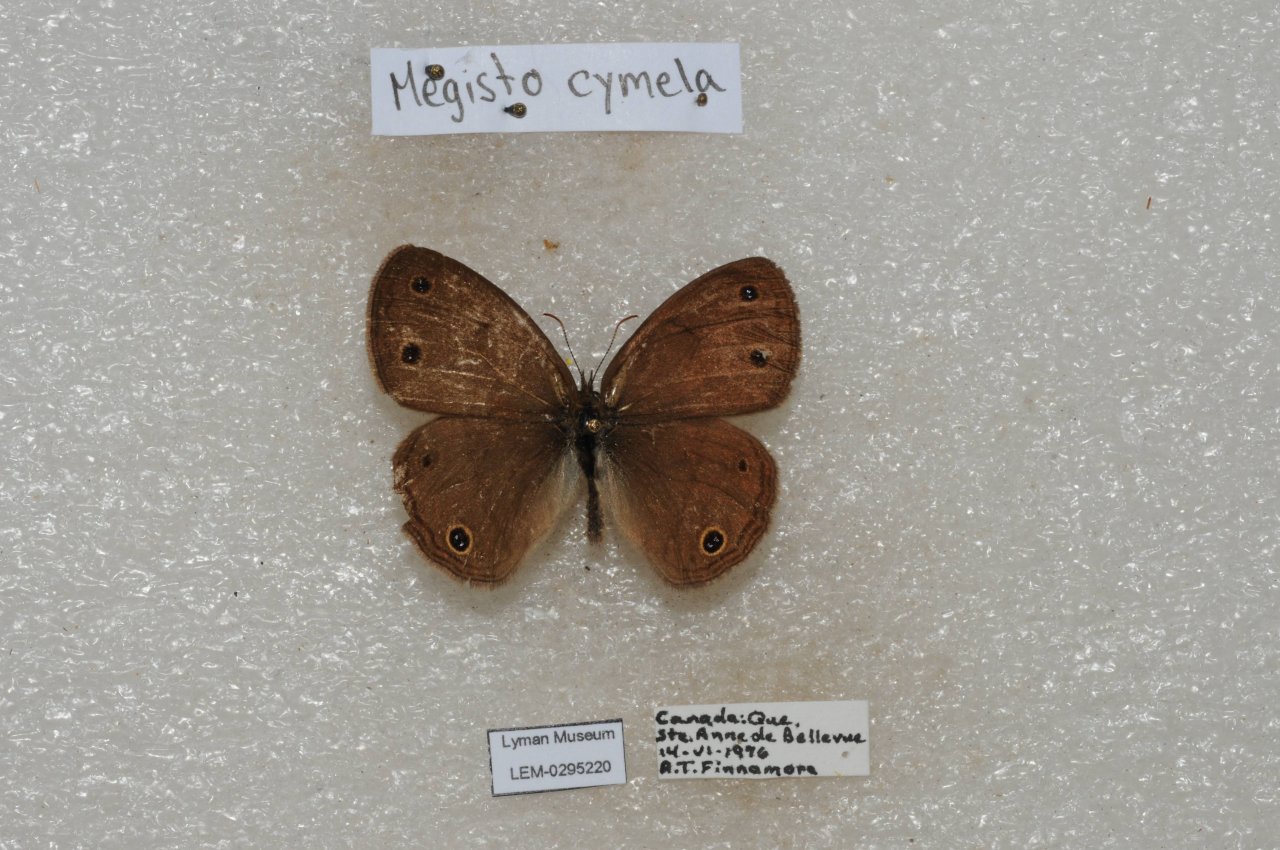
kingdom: Animalia
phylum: Arthropoda
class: Insecta
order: Lepidoptera
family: Nymphalidae
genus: Euptychia
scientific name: Euptychia cymela
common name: Little Wood Satyr
